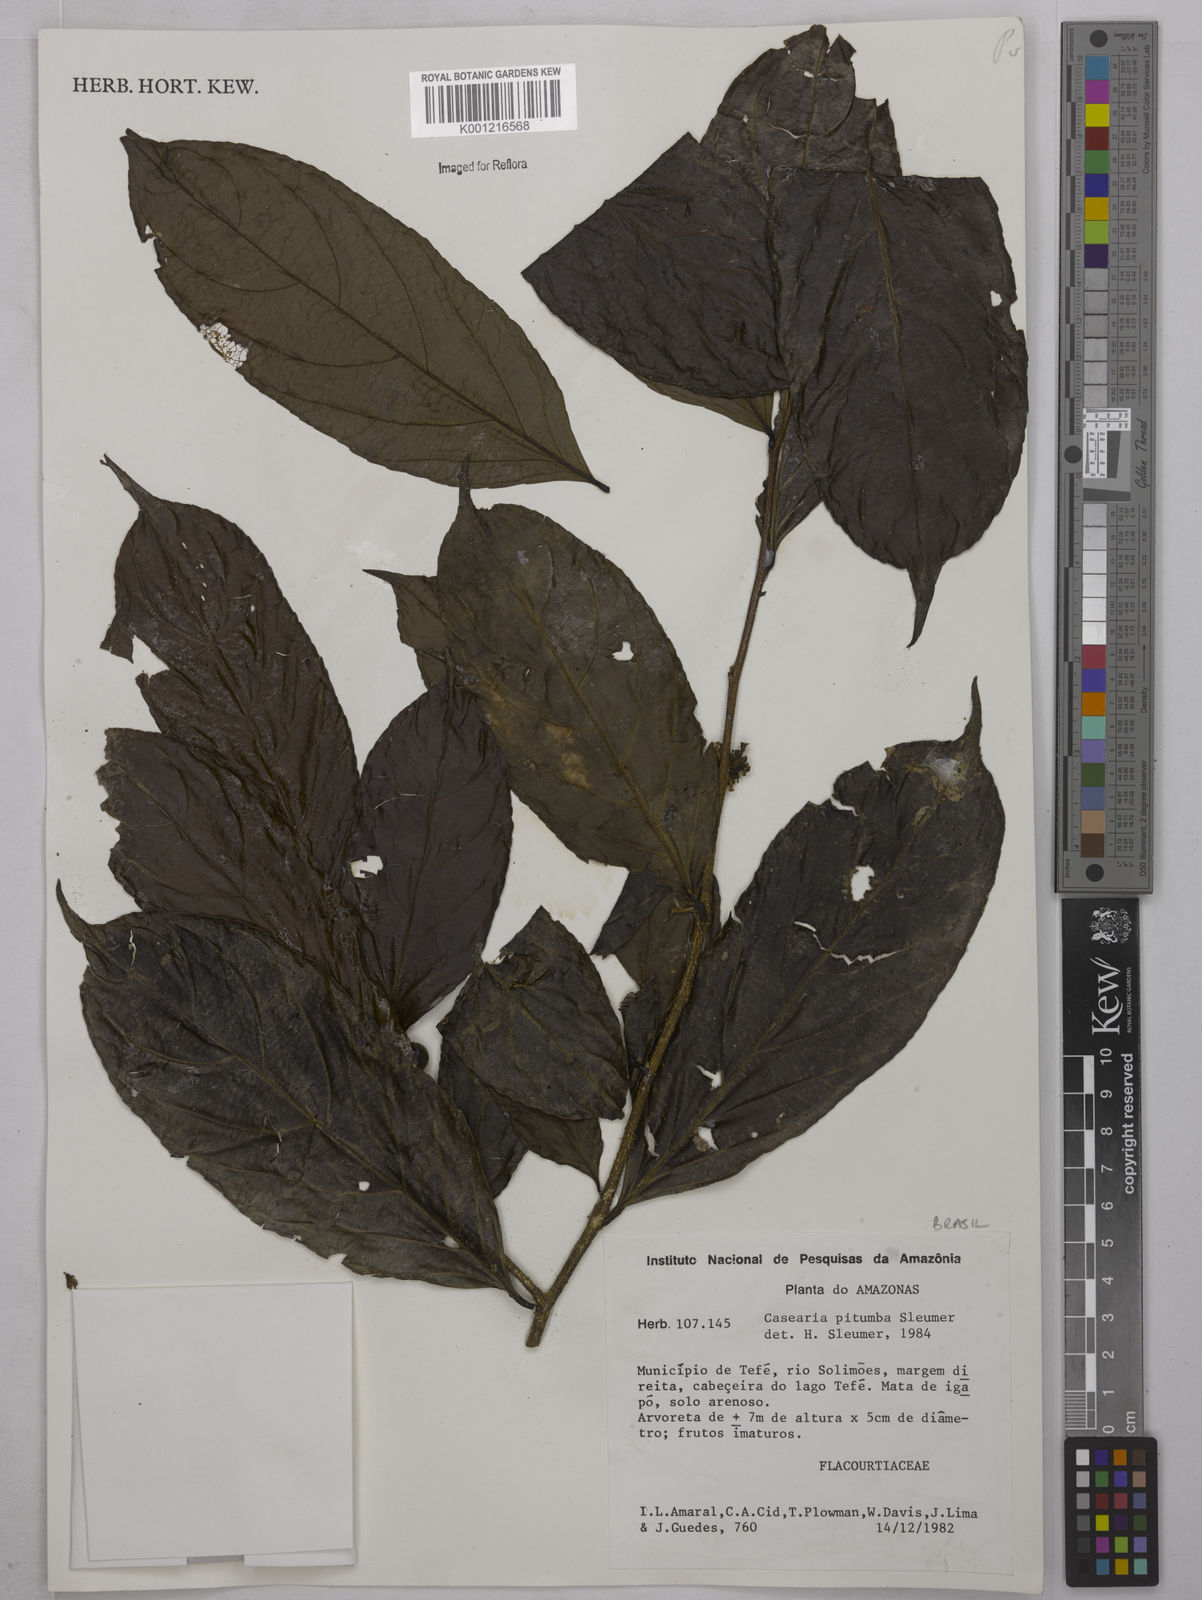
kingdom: Plantae
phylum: Tracheophyta
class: Magnoliopsida
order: Malpighiales
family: Salicaceae
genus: Casearia
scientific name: Casearia pitumba
